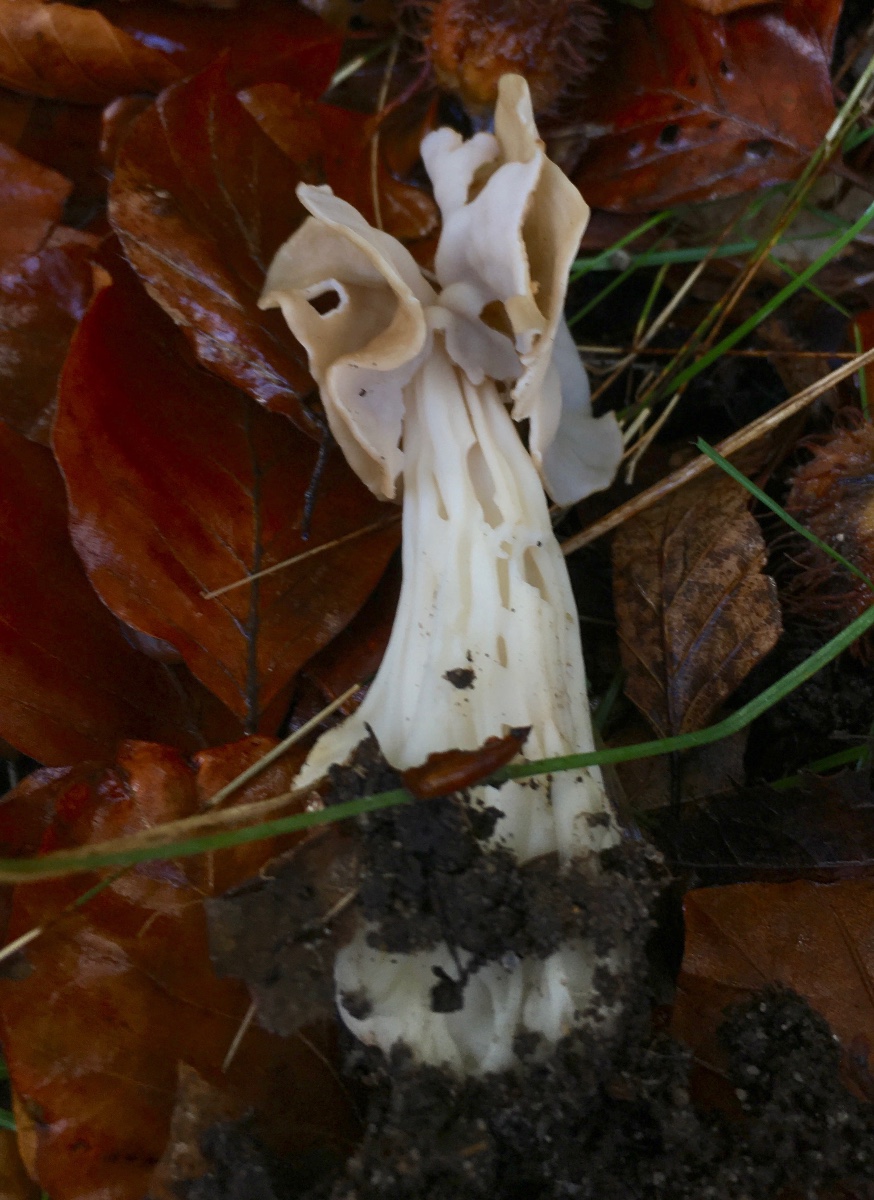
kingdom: Fungi
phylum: Ascomycota
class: Pezizomycetes
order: Pezizales
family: Helvellaceae
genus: Helvella
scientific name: Helvella crispa
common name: kruset foldhat
